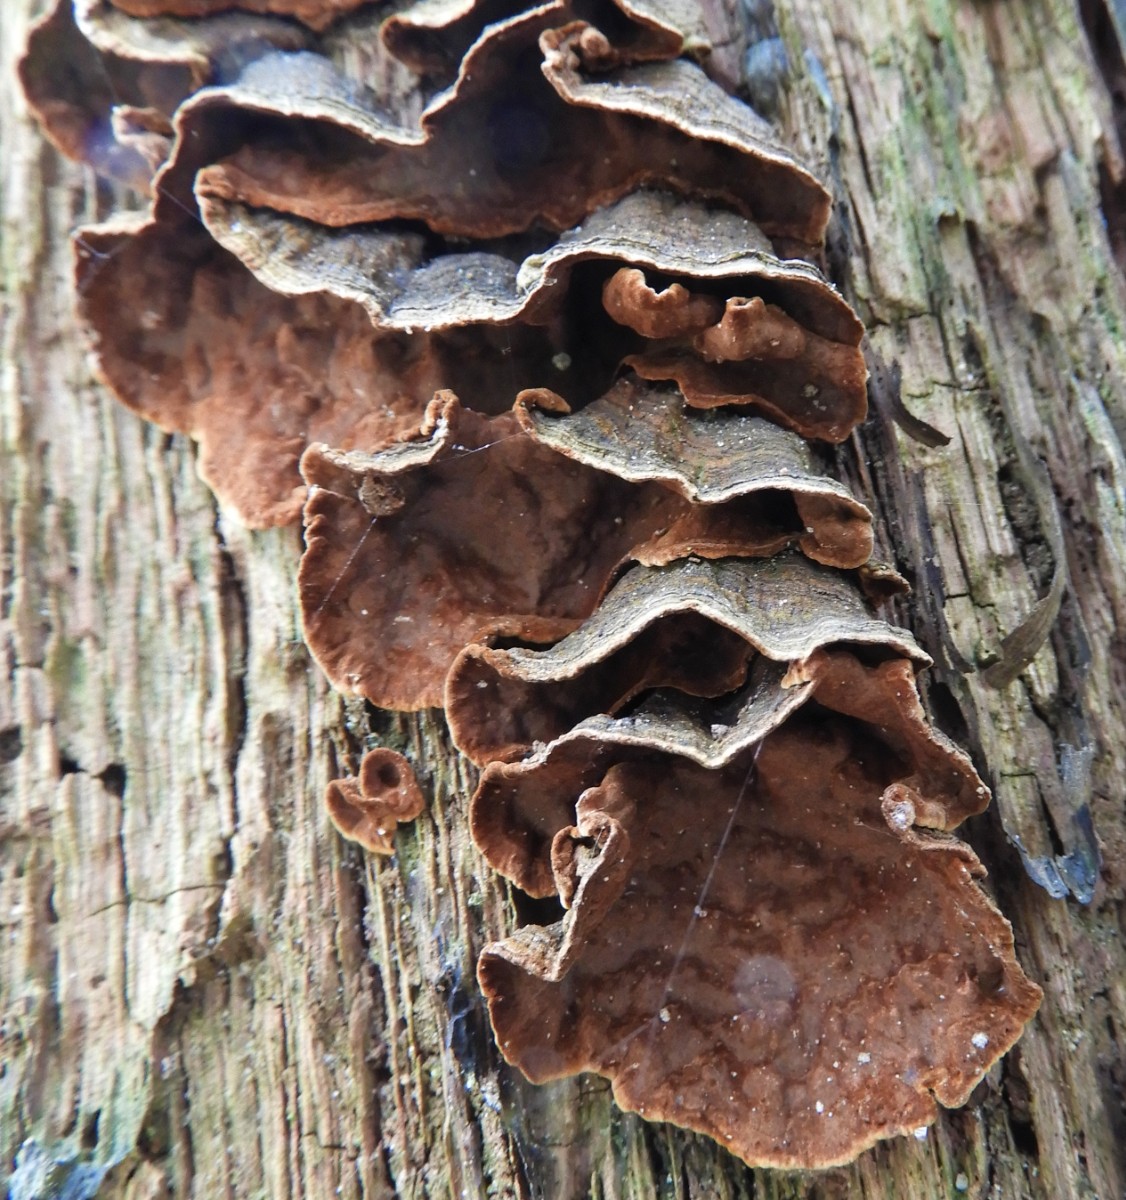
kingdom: Fungi
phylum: Basidiomycota
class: Agaricomycetes
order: Hymenochaetales
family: Hymenochaetaceae
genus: Hymenochaete
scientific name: Hymenochaete rubiginosa
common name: stiv ruslædersvamp
